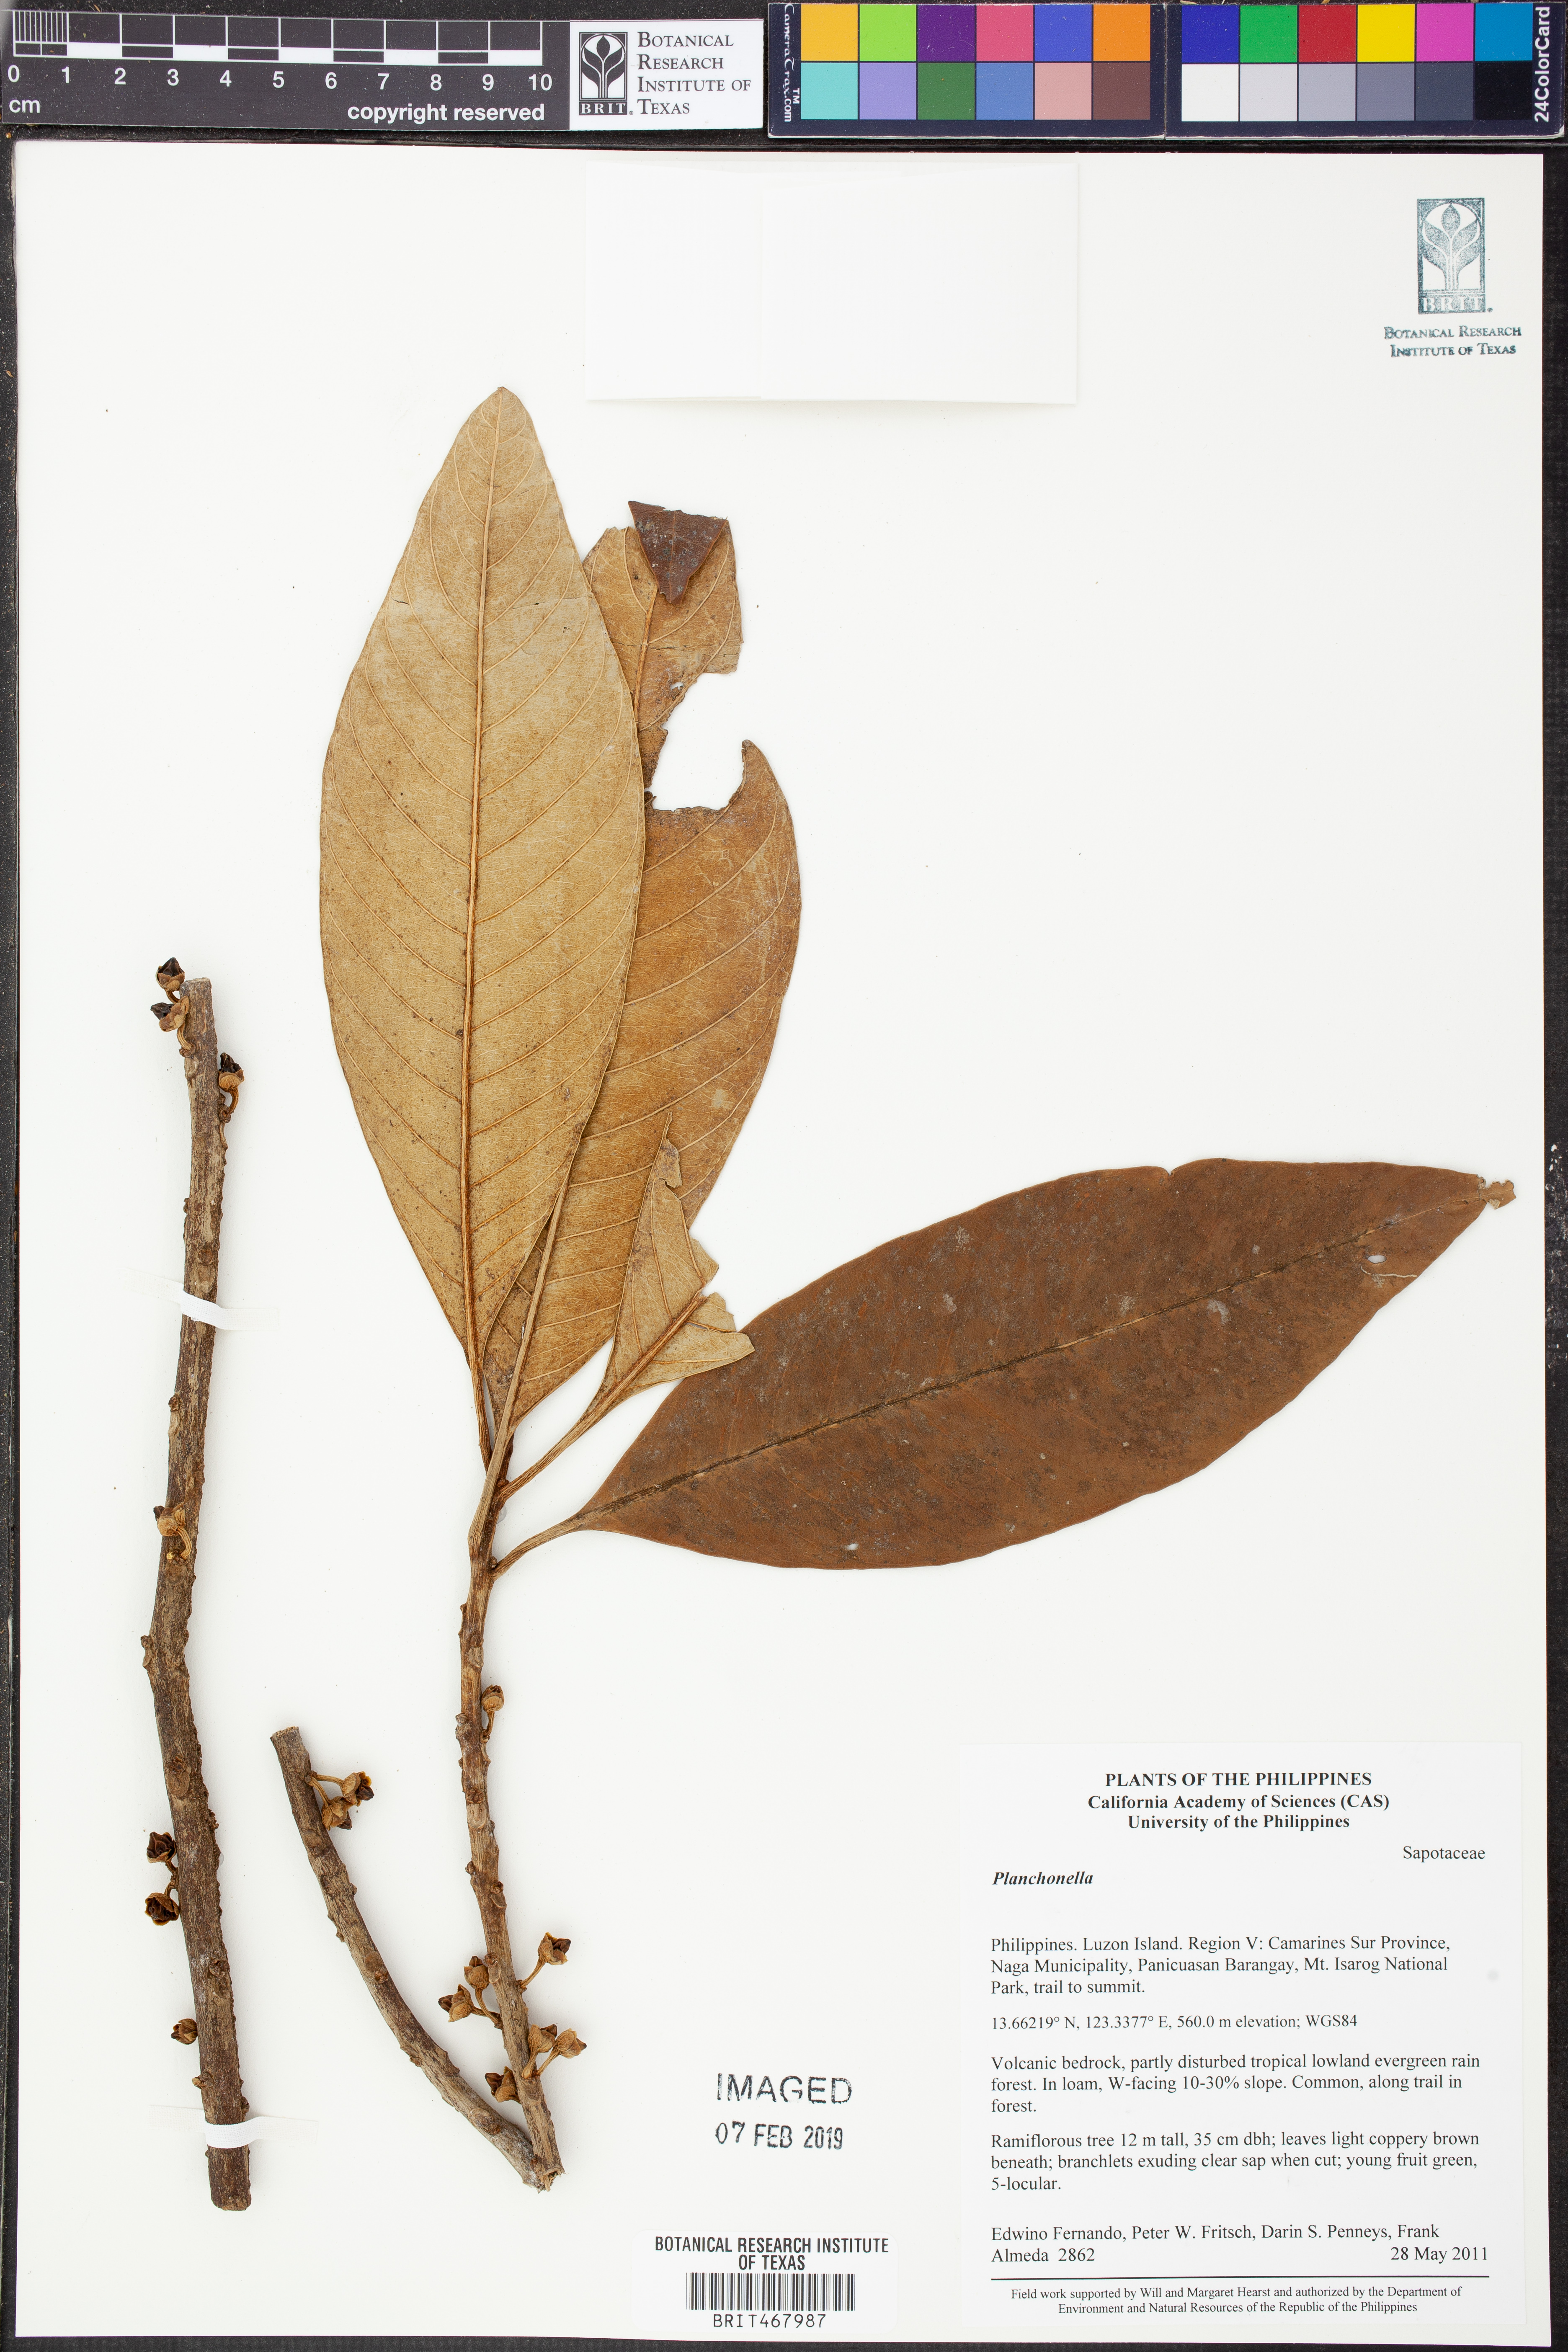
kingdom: Plantae
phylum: Tracheophyta
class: Magnoliopsida
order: Ericales
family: Sapotaceae
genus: Planchonella
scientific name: Planchonella
